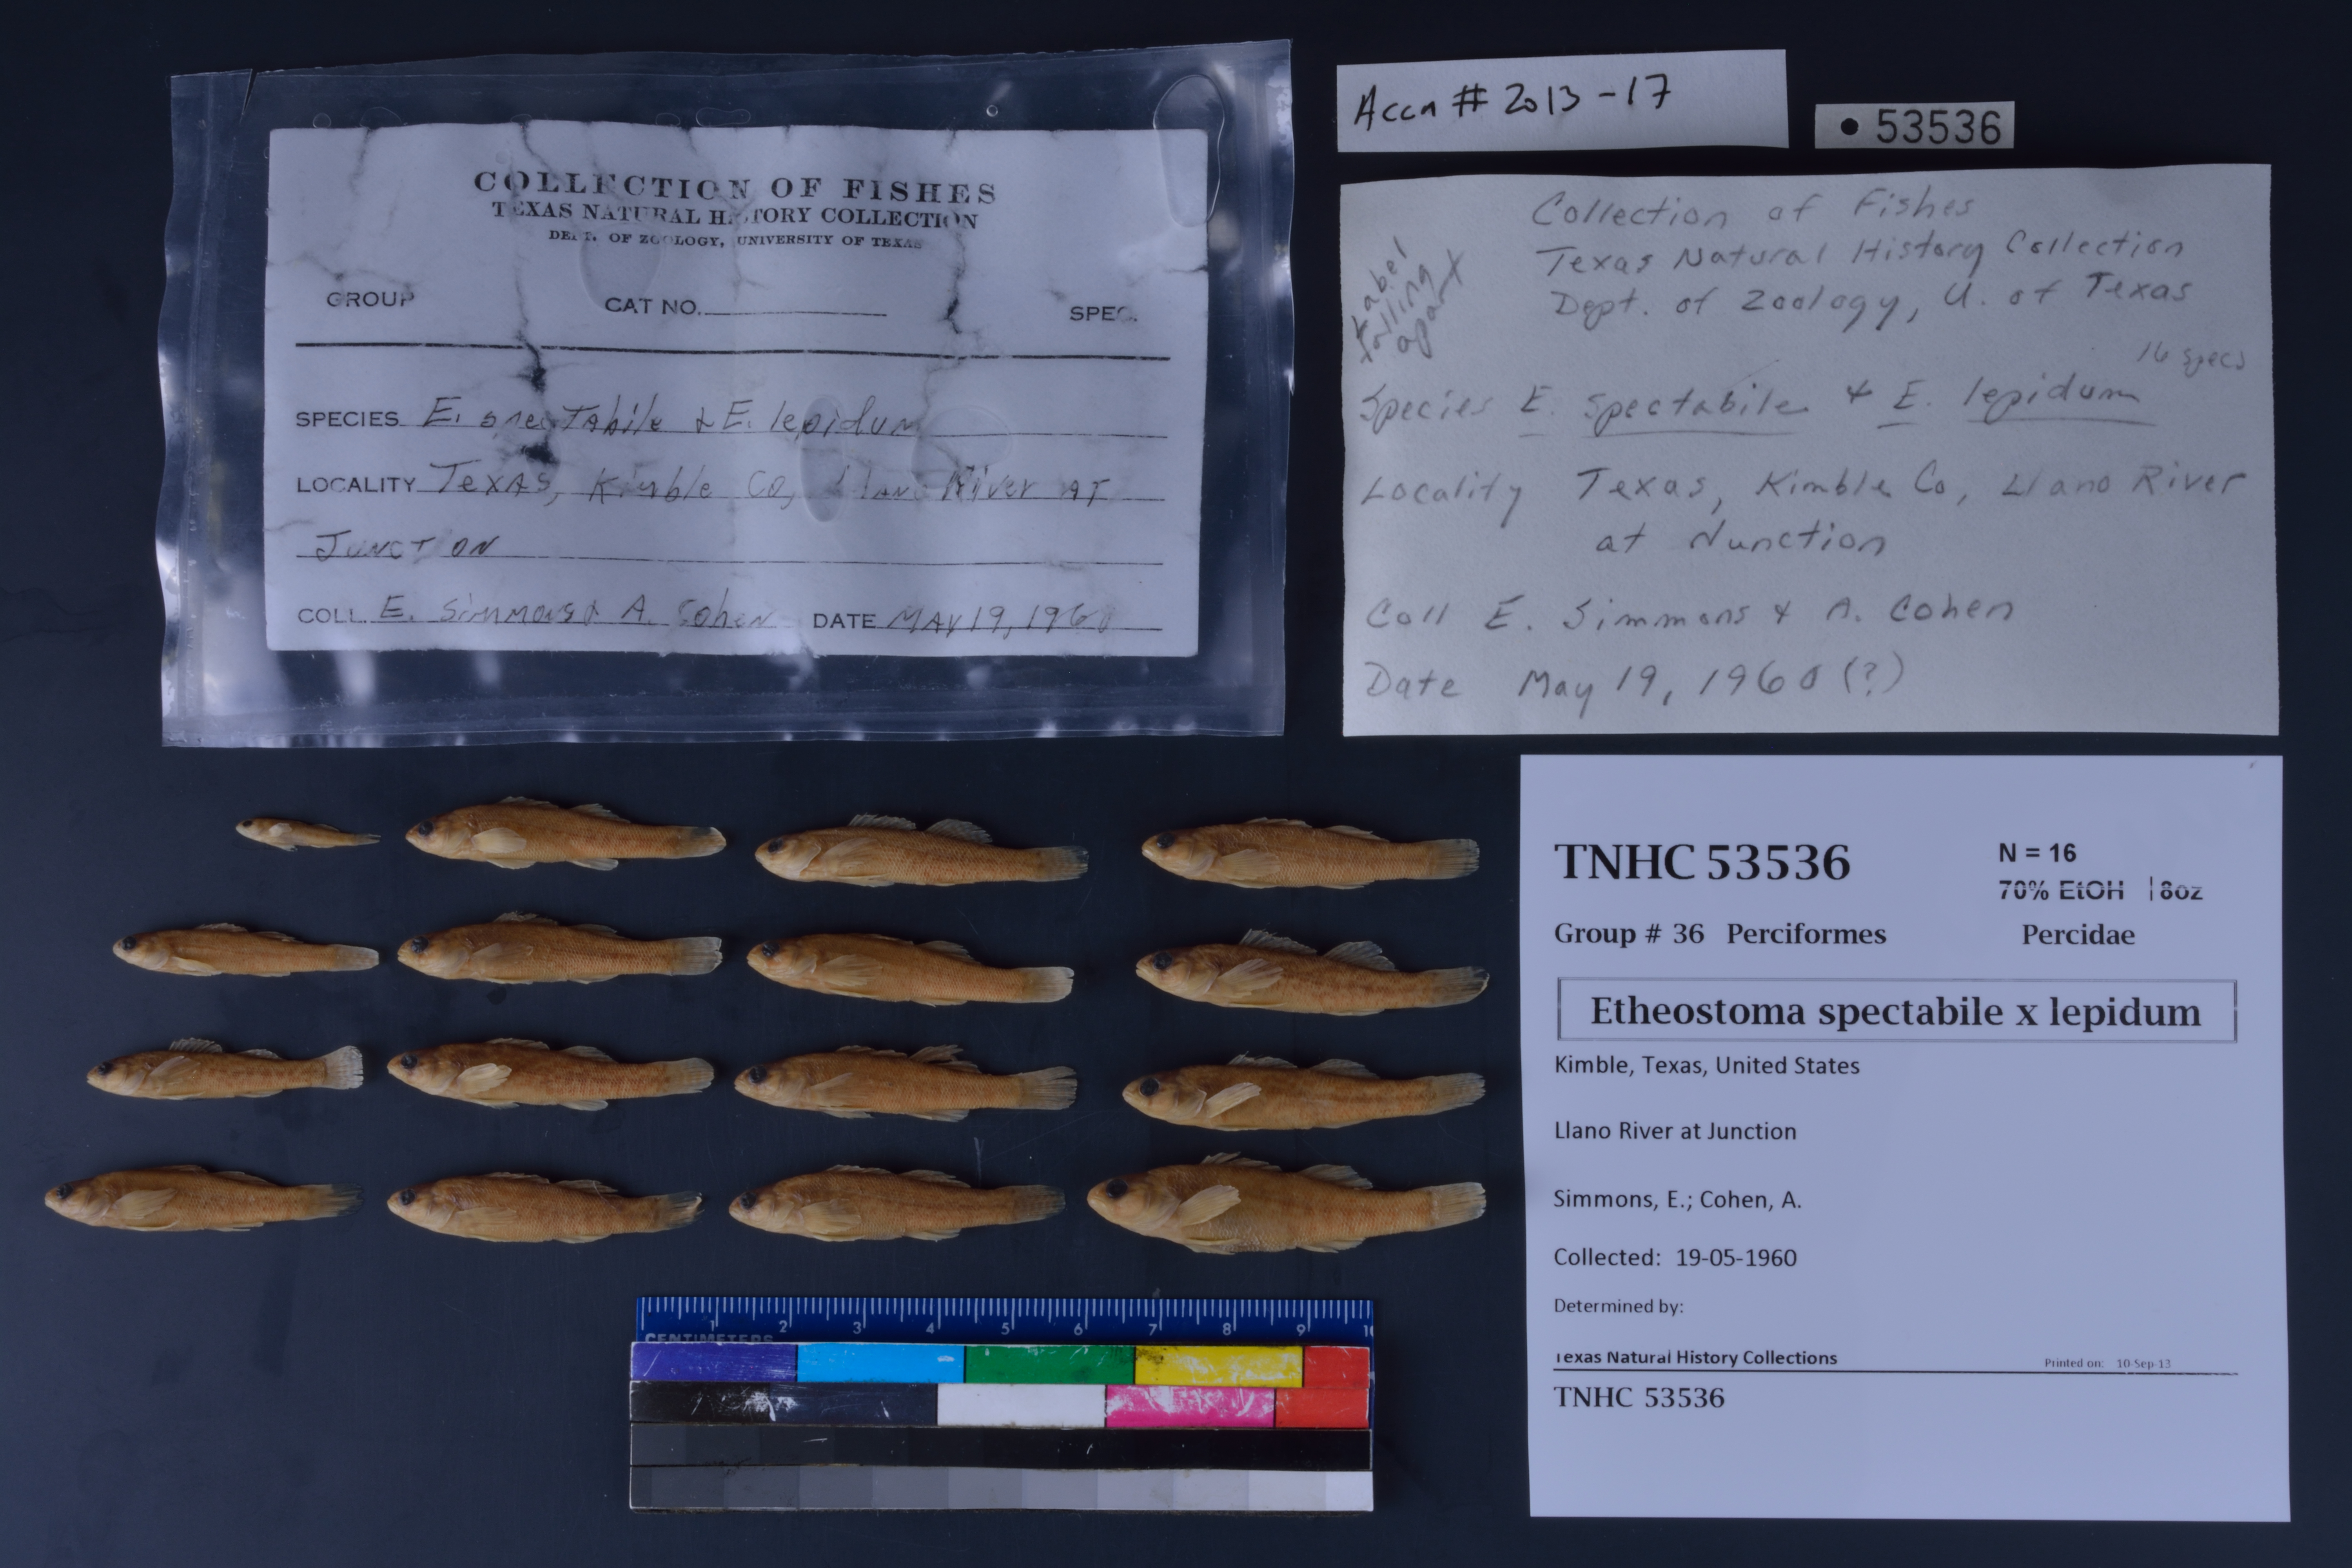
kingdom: Animalia
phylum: Chordata
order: Perciformes
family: Percidae
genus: Etheostoma
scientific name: Etheostoma
